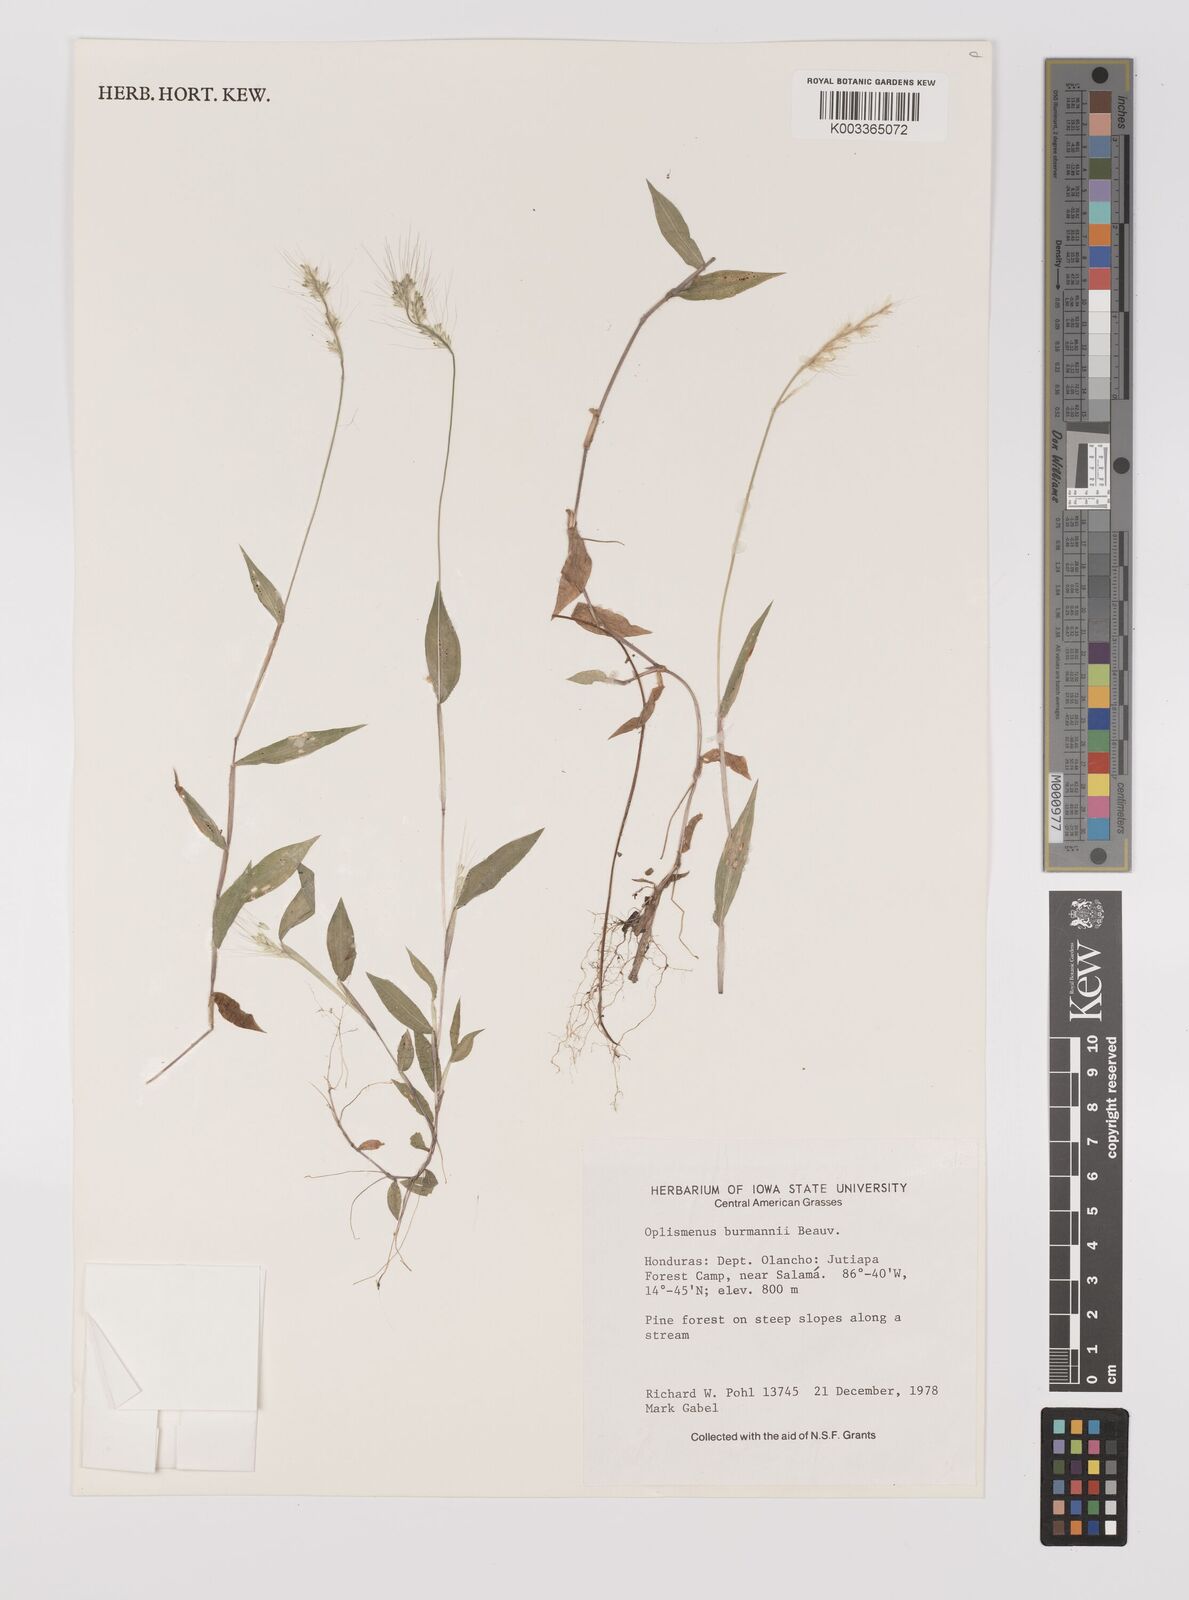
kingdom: Plantae
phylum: Tracheophyta
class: Liliopsida
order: Poales
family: Poaceae
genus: Oplismenus
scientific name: Oplismenus burmanni
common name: Burmann's basketgrass
